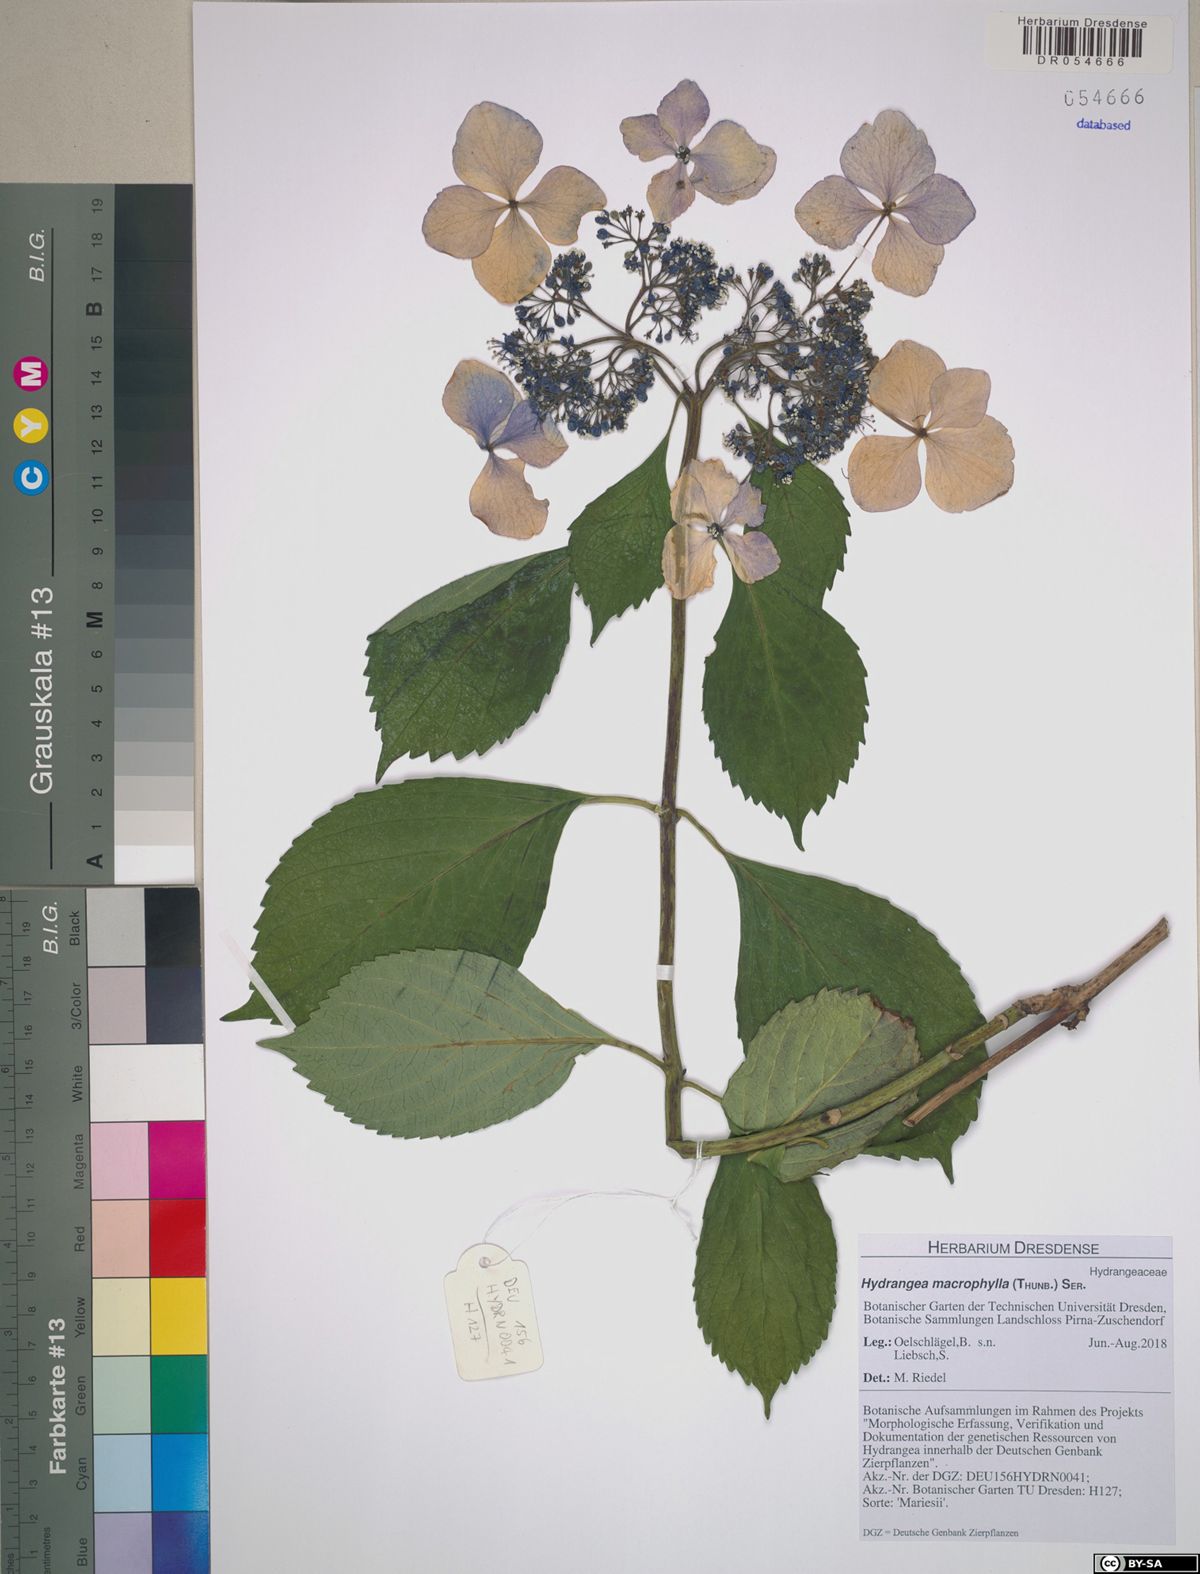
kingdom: Plantae
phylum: Tracheophyta
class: Magnoliopsida
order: Cornales
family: Hydrangeaceae
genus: Hydrangea
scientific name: Hydrangea macrophylla
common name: Hydrangea
